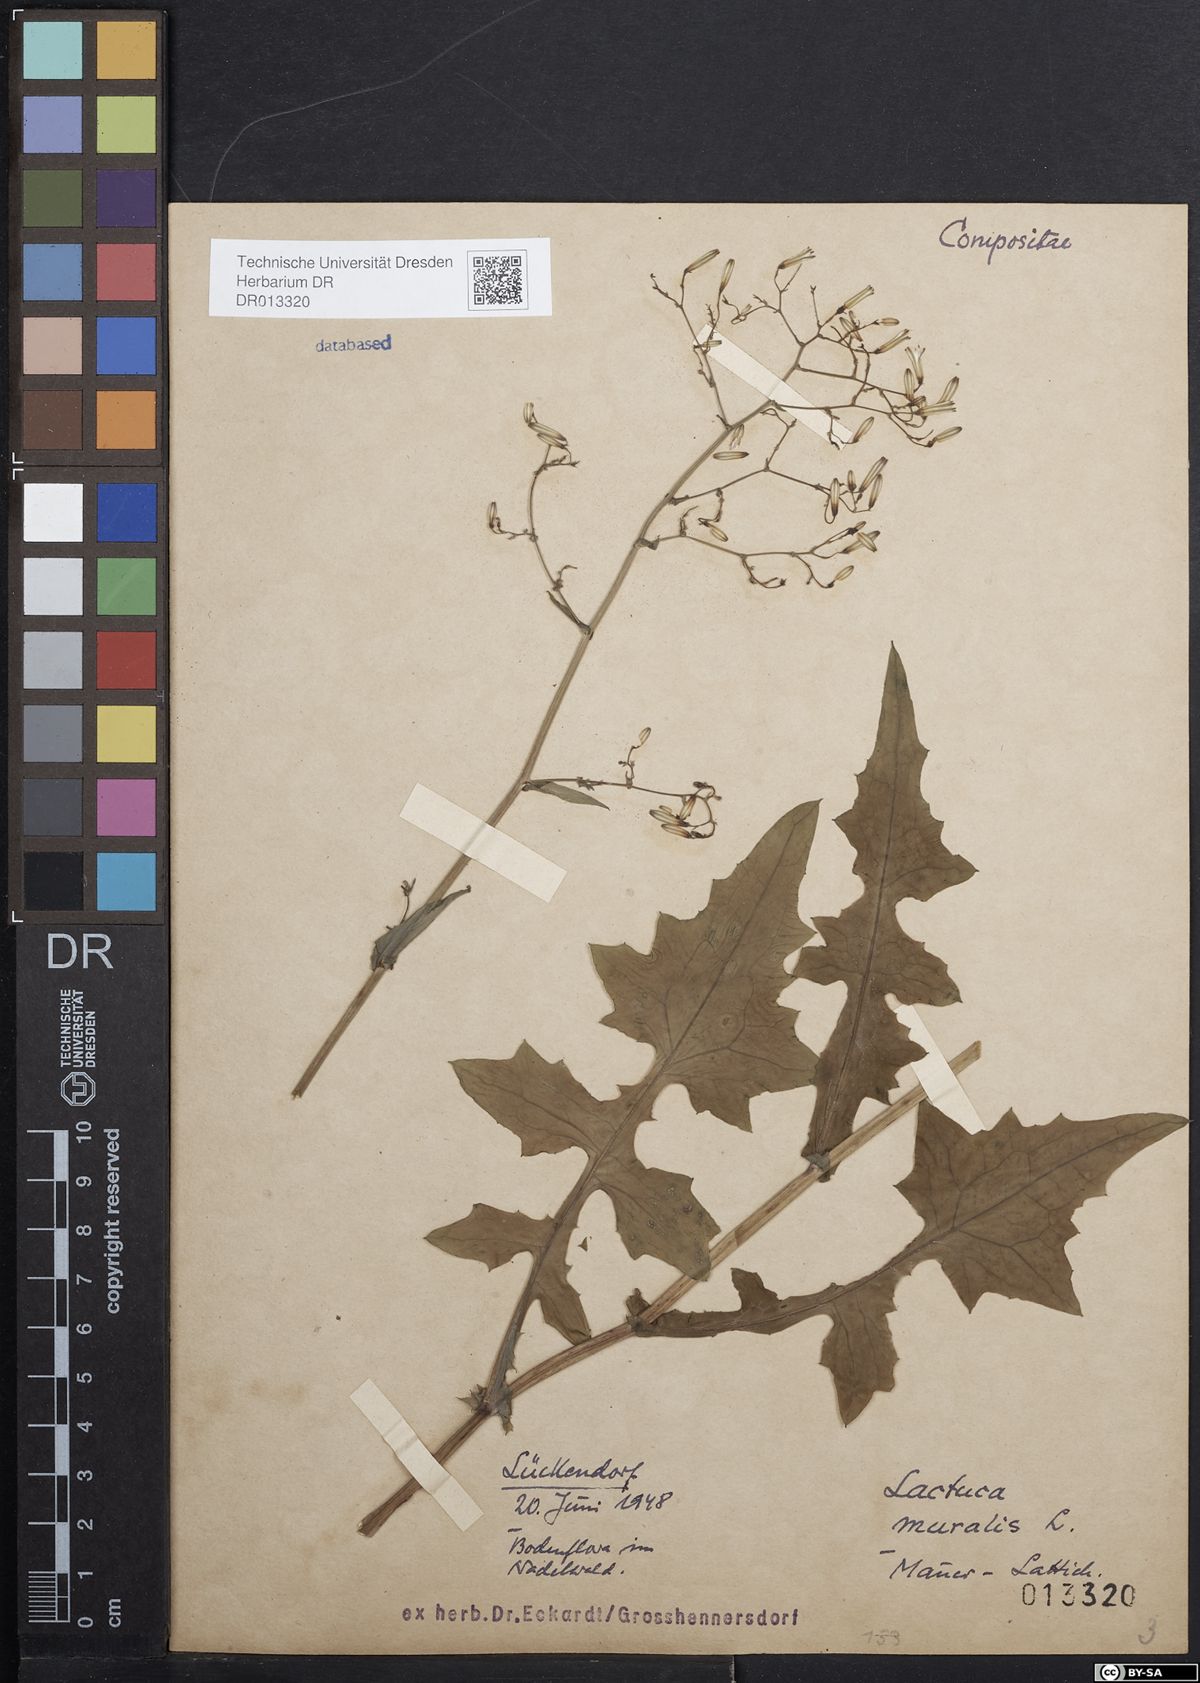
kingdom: Plantae
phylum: Tracheophyta
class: Magnoliopsida
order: Asterales
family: Asteraceae
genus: Mycelis
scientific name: Mycelis muralis
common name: Wall lettuce
